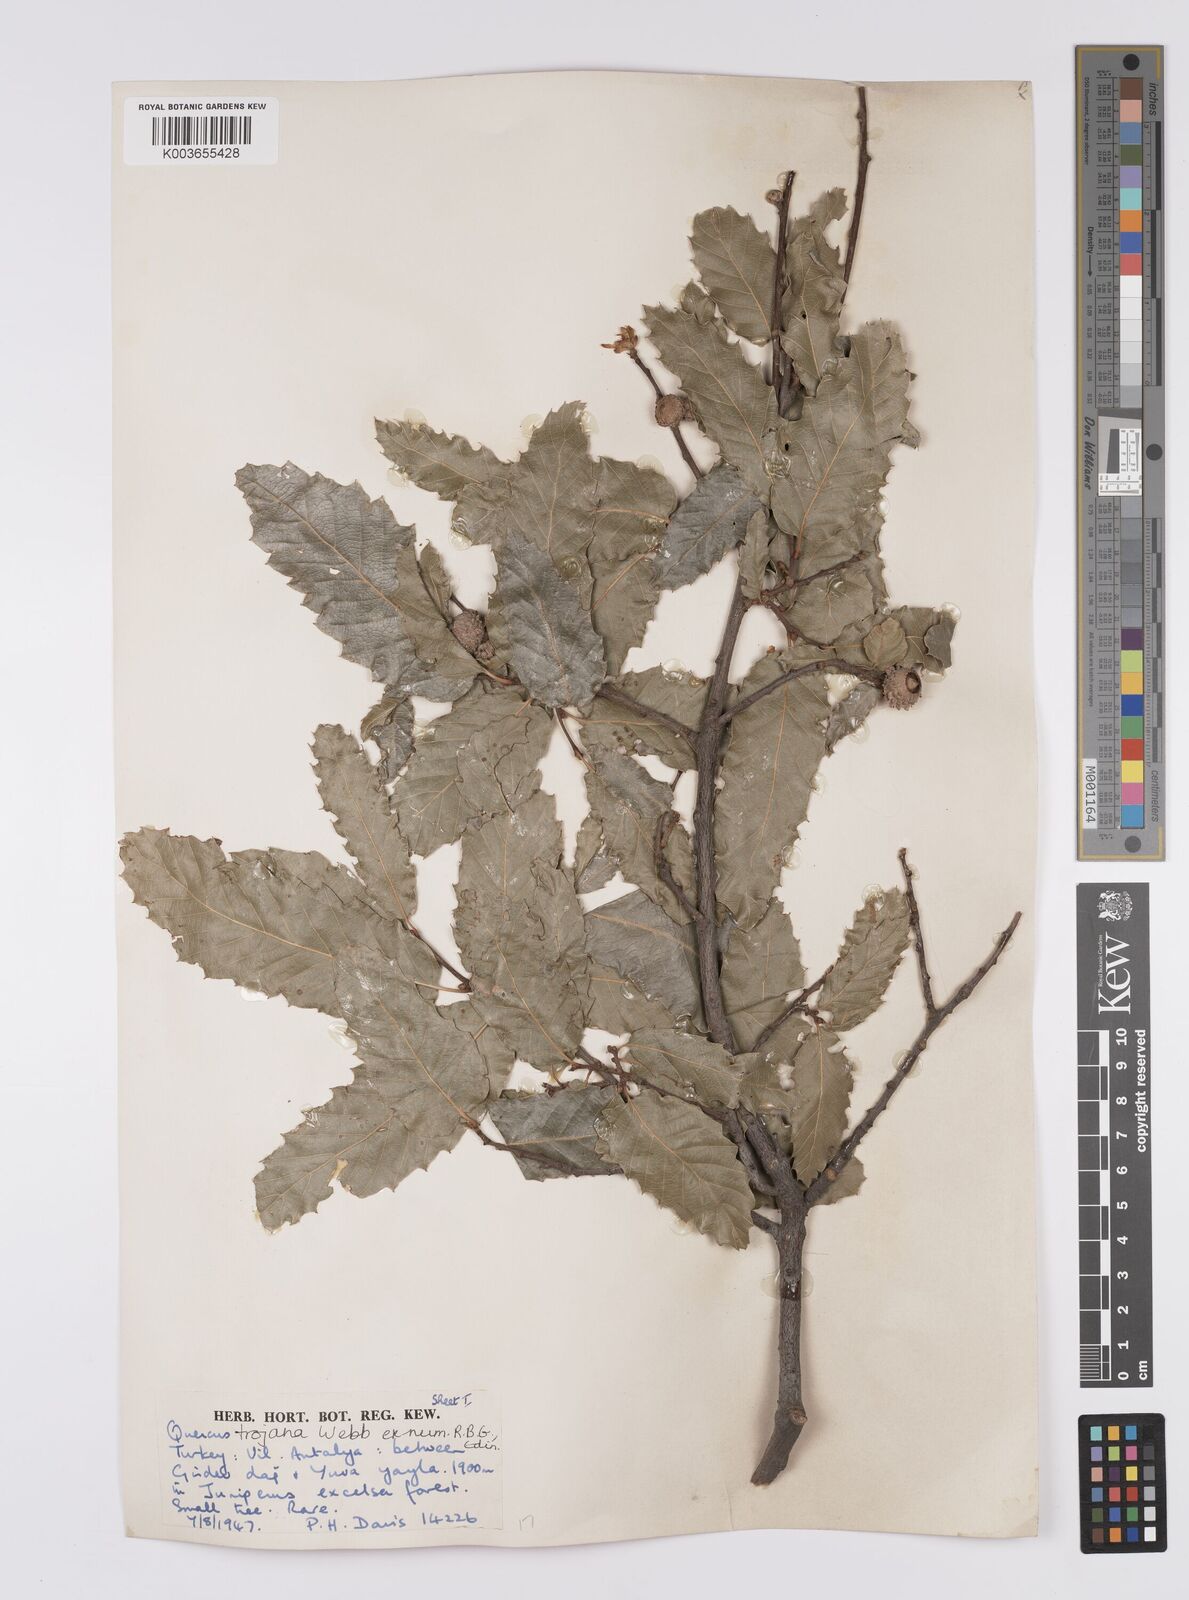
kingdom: Plantae
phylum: Tracheophyta
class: Magnoliopsida
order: Fagales
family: Fagaceae
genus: Quercus
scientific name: Quercus trojana
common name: Macedonian oak
